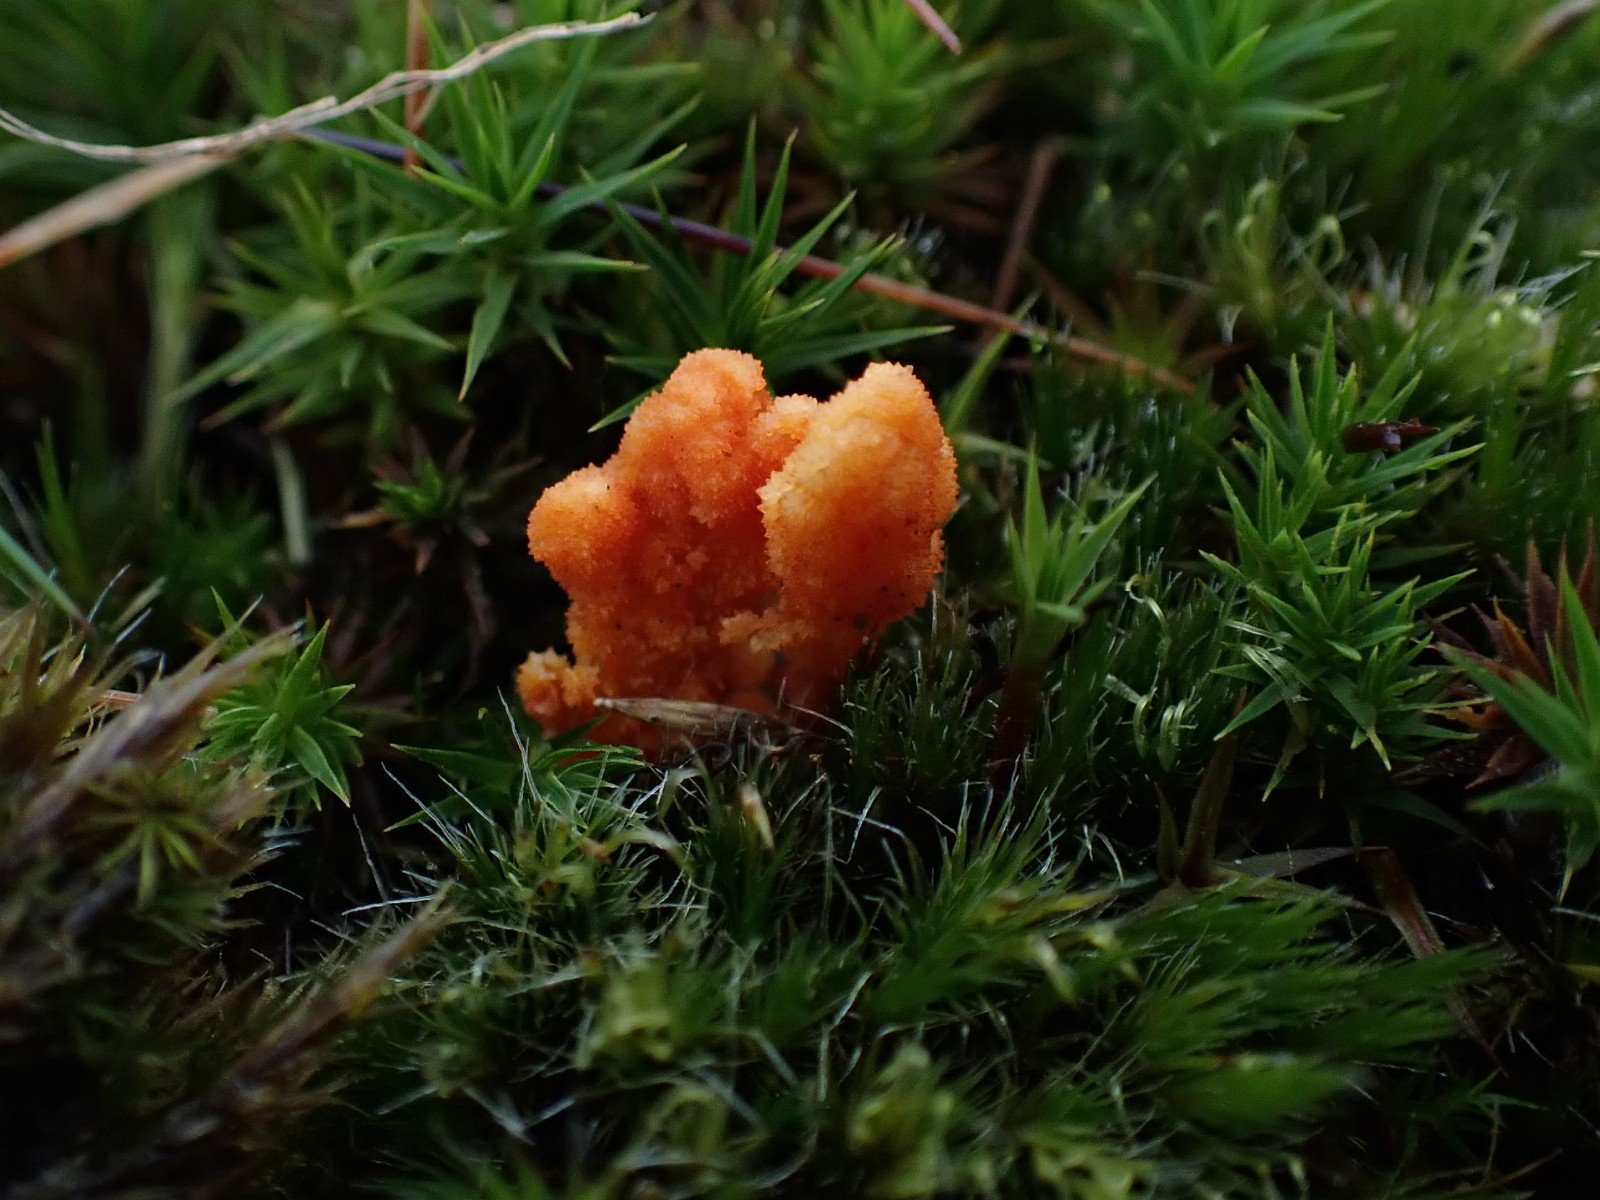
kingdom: Fungi
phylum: Ascomycota
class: Sordariomycetes
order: Hypocreales
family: Cordycipitaceae
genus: Cordyceps
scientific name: Cordyceps militaris
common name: puppe-snyltekølle
